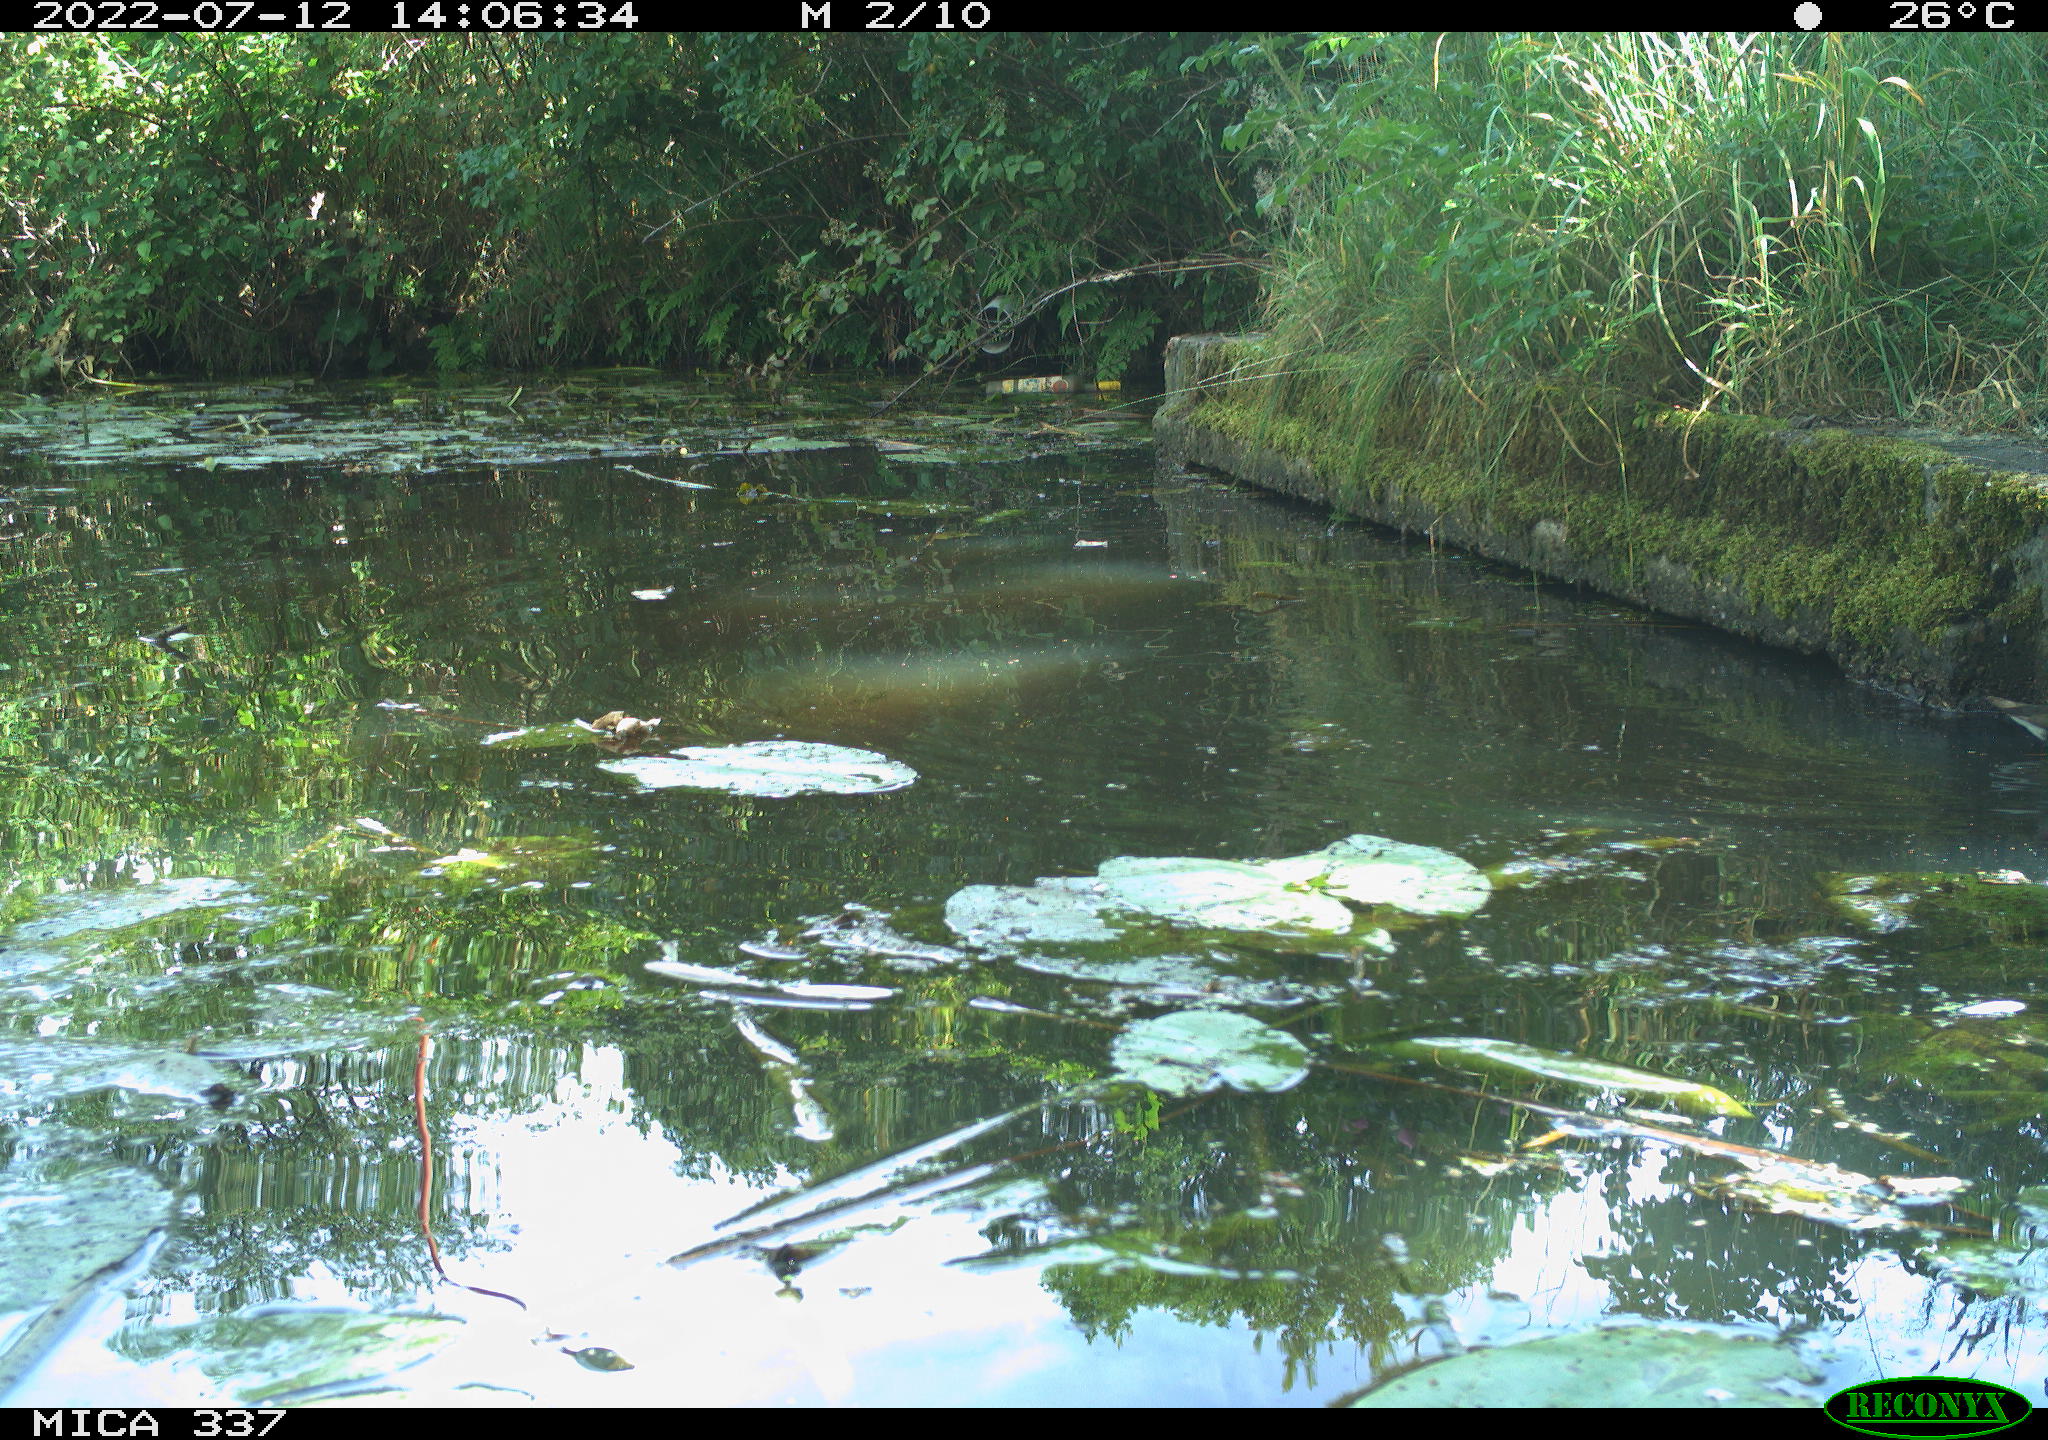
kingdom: Animalia
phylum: Chordata
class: Aves
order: Gruiformes
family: Rallidae
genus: Gallinula
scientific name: Gallinula chloropus
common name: Common moorhen
